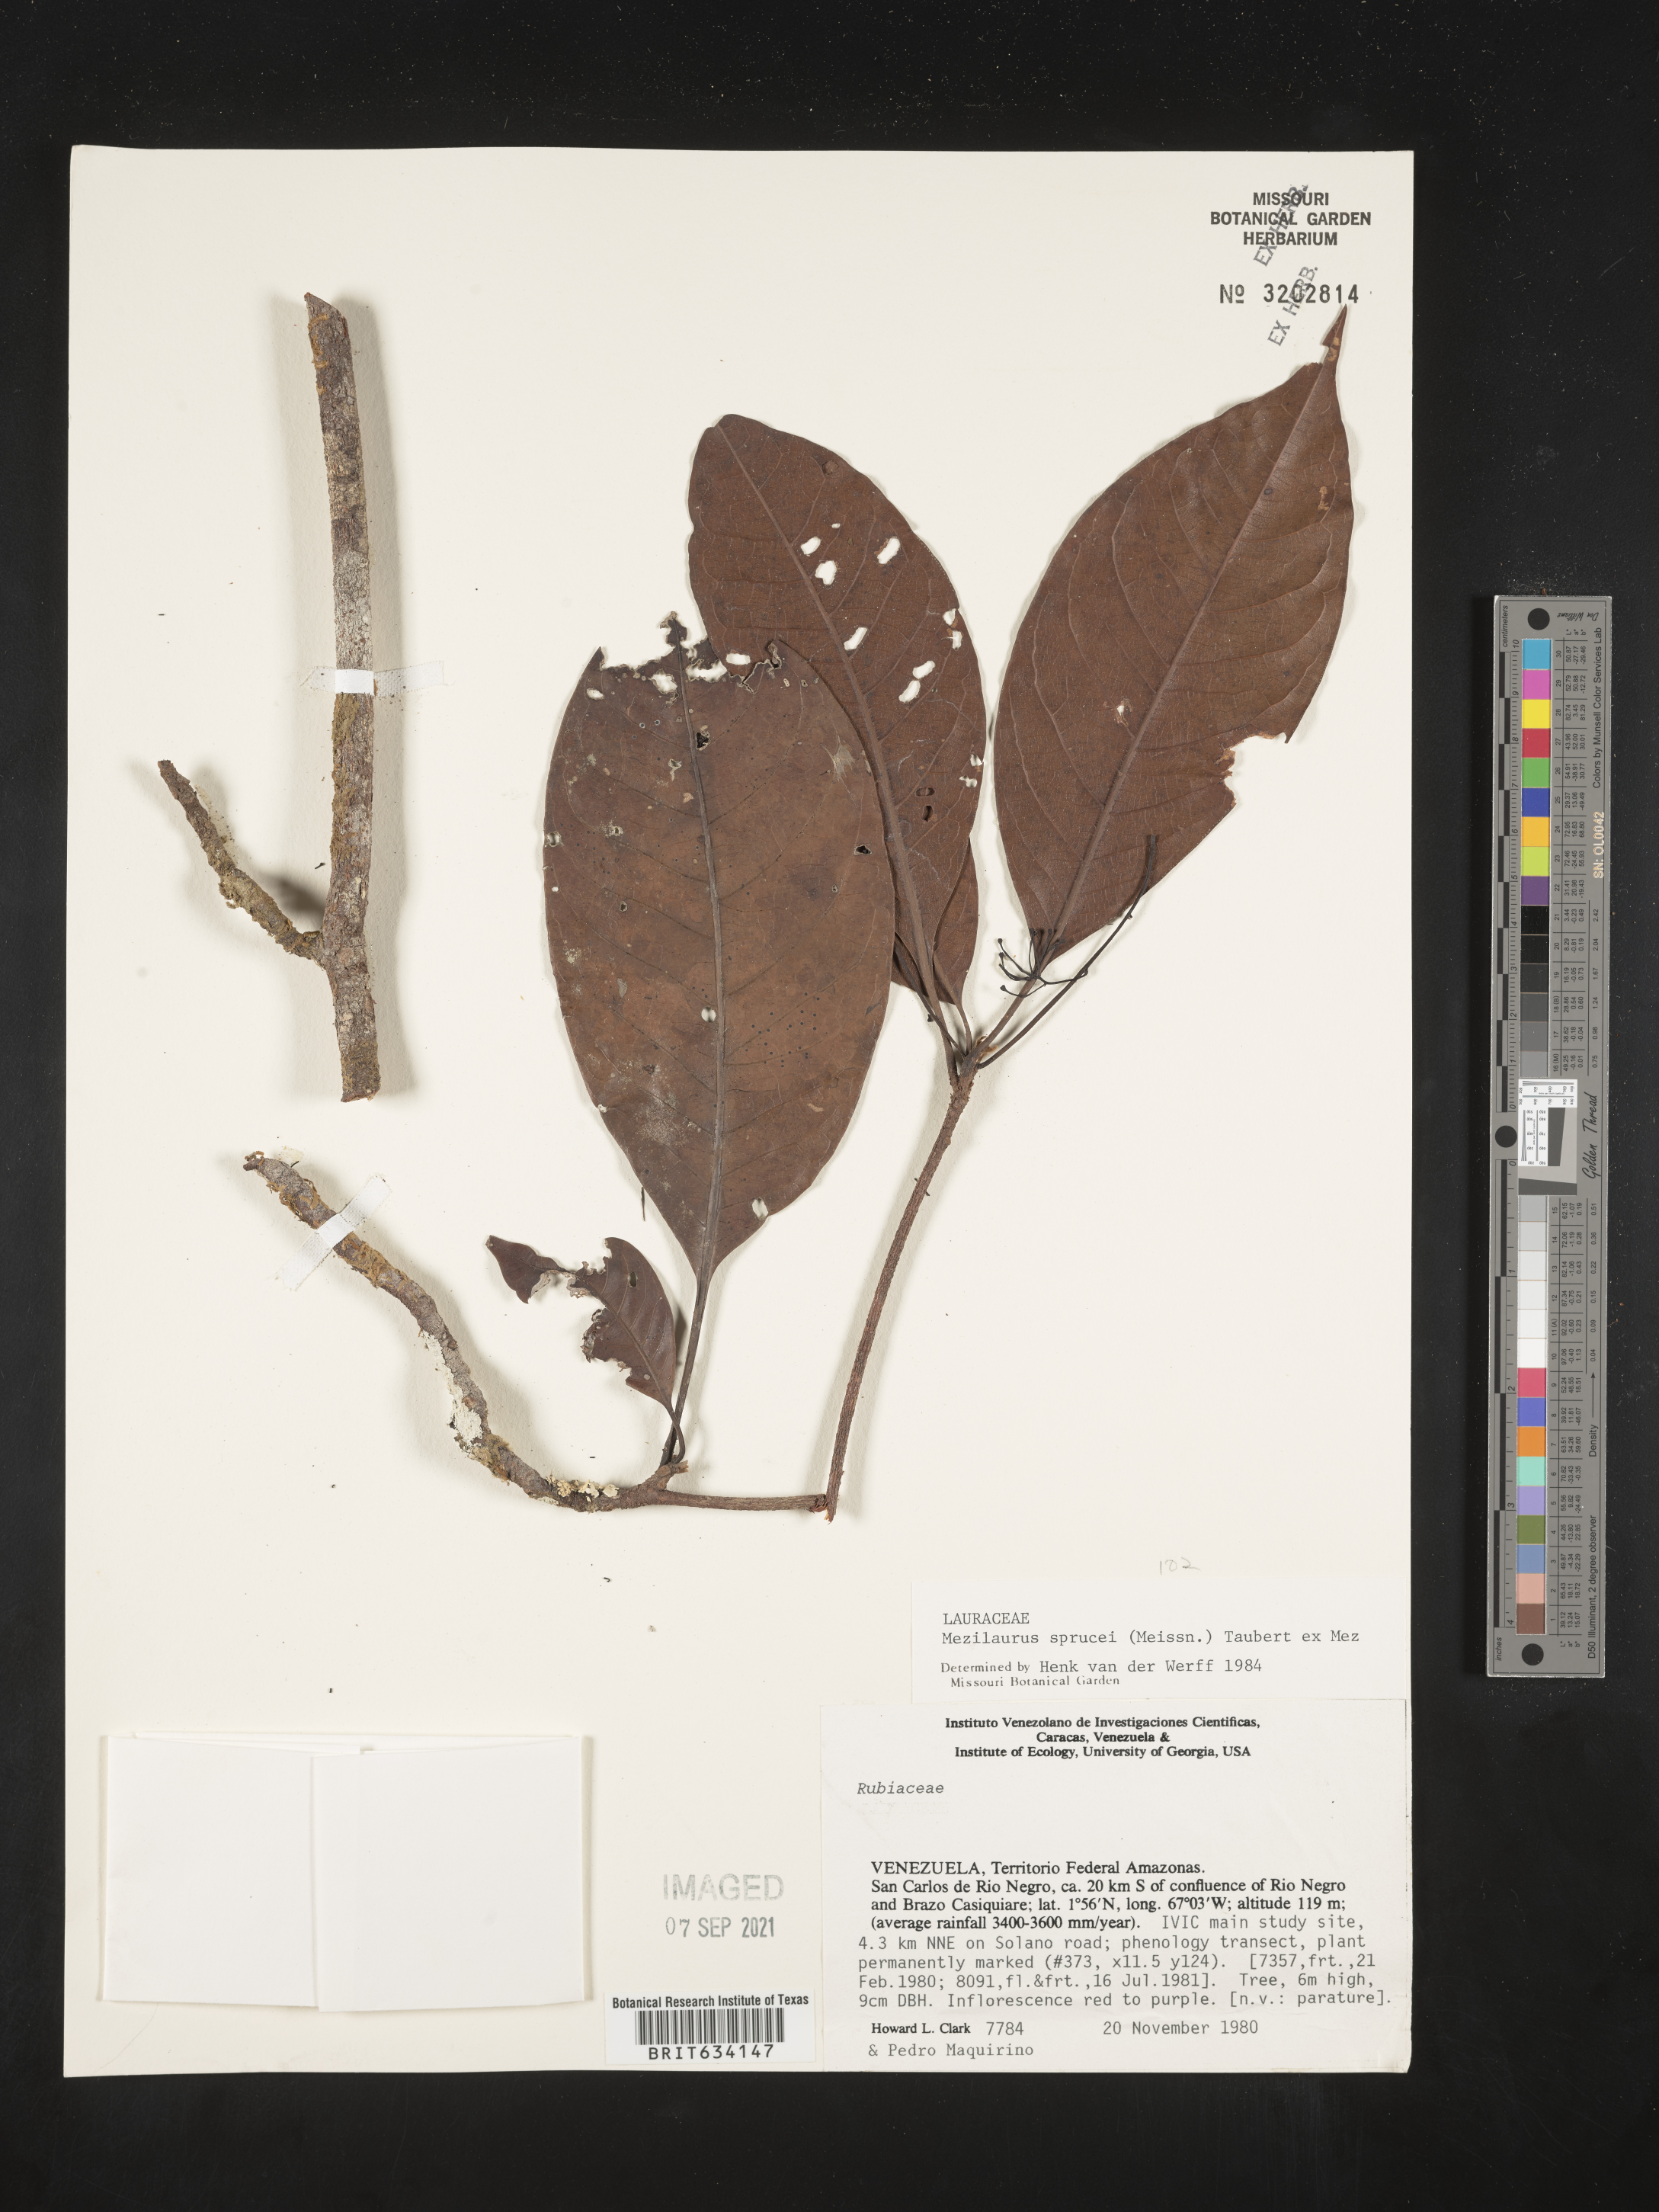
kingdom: Plantae
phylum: Tracheophyta
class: Magnoliopsida
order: Laurales
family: Lauraceae
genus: Mezilaurus
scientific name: Mezilaurus
